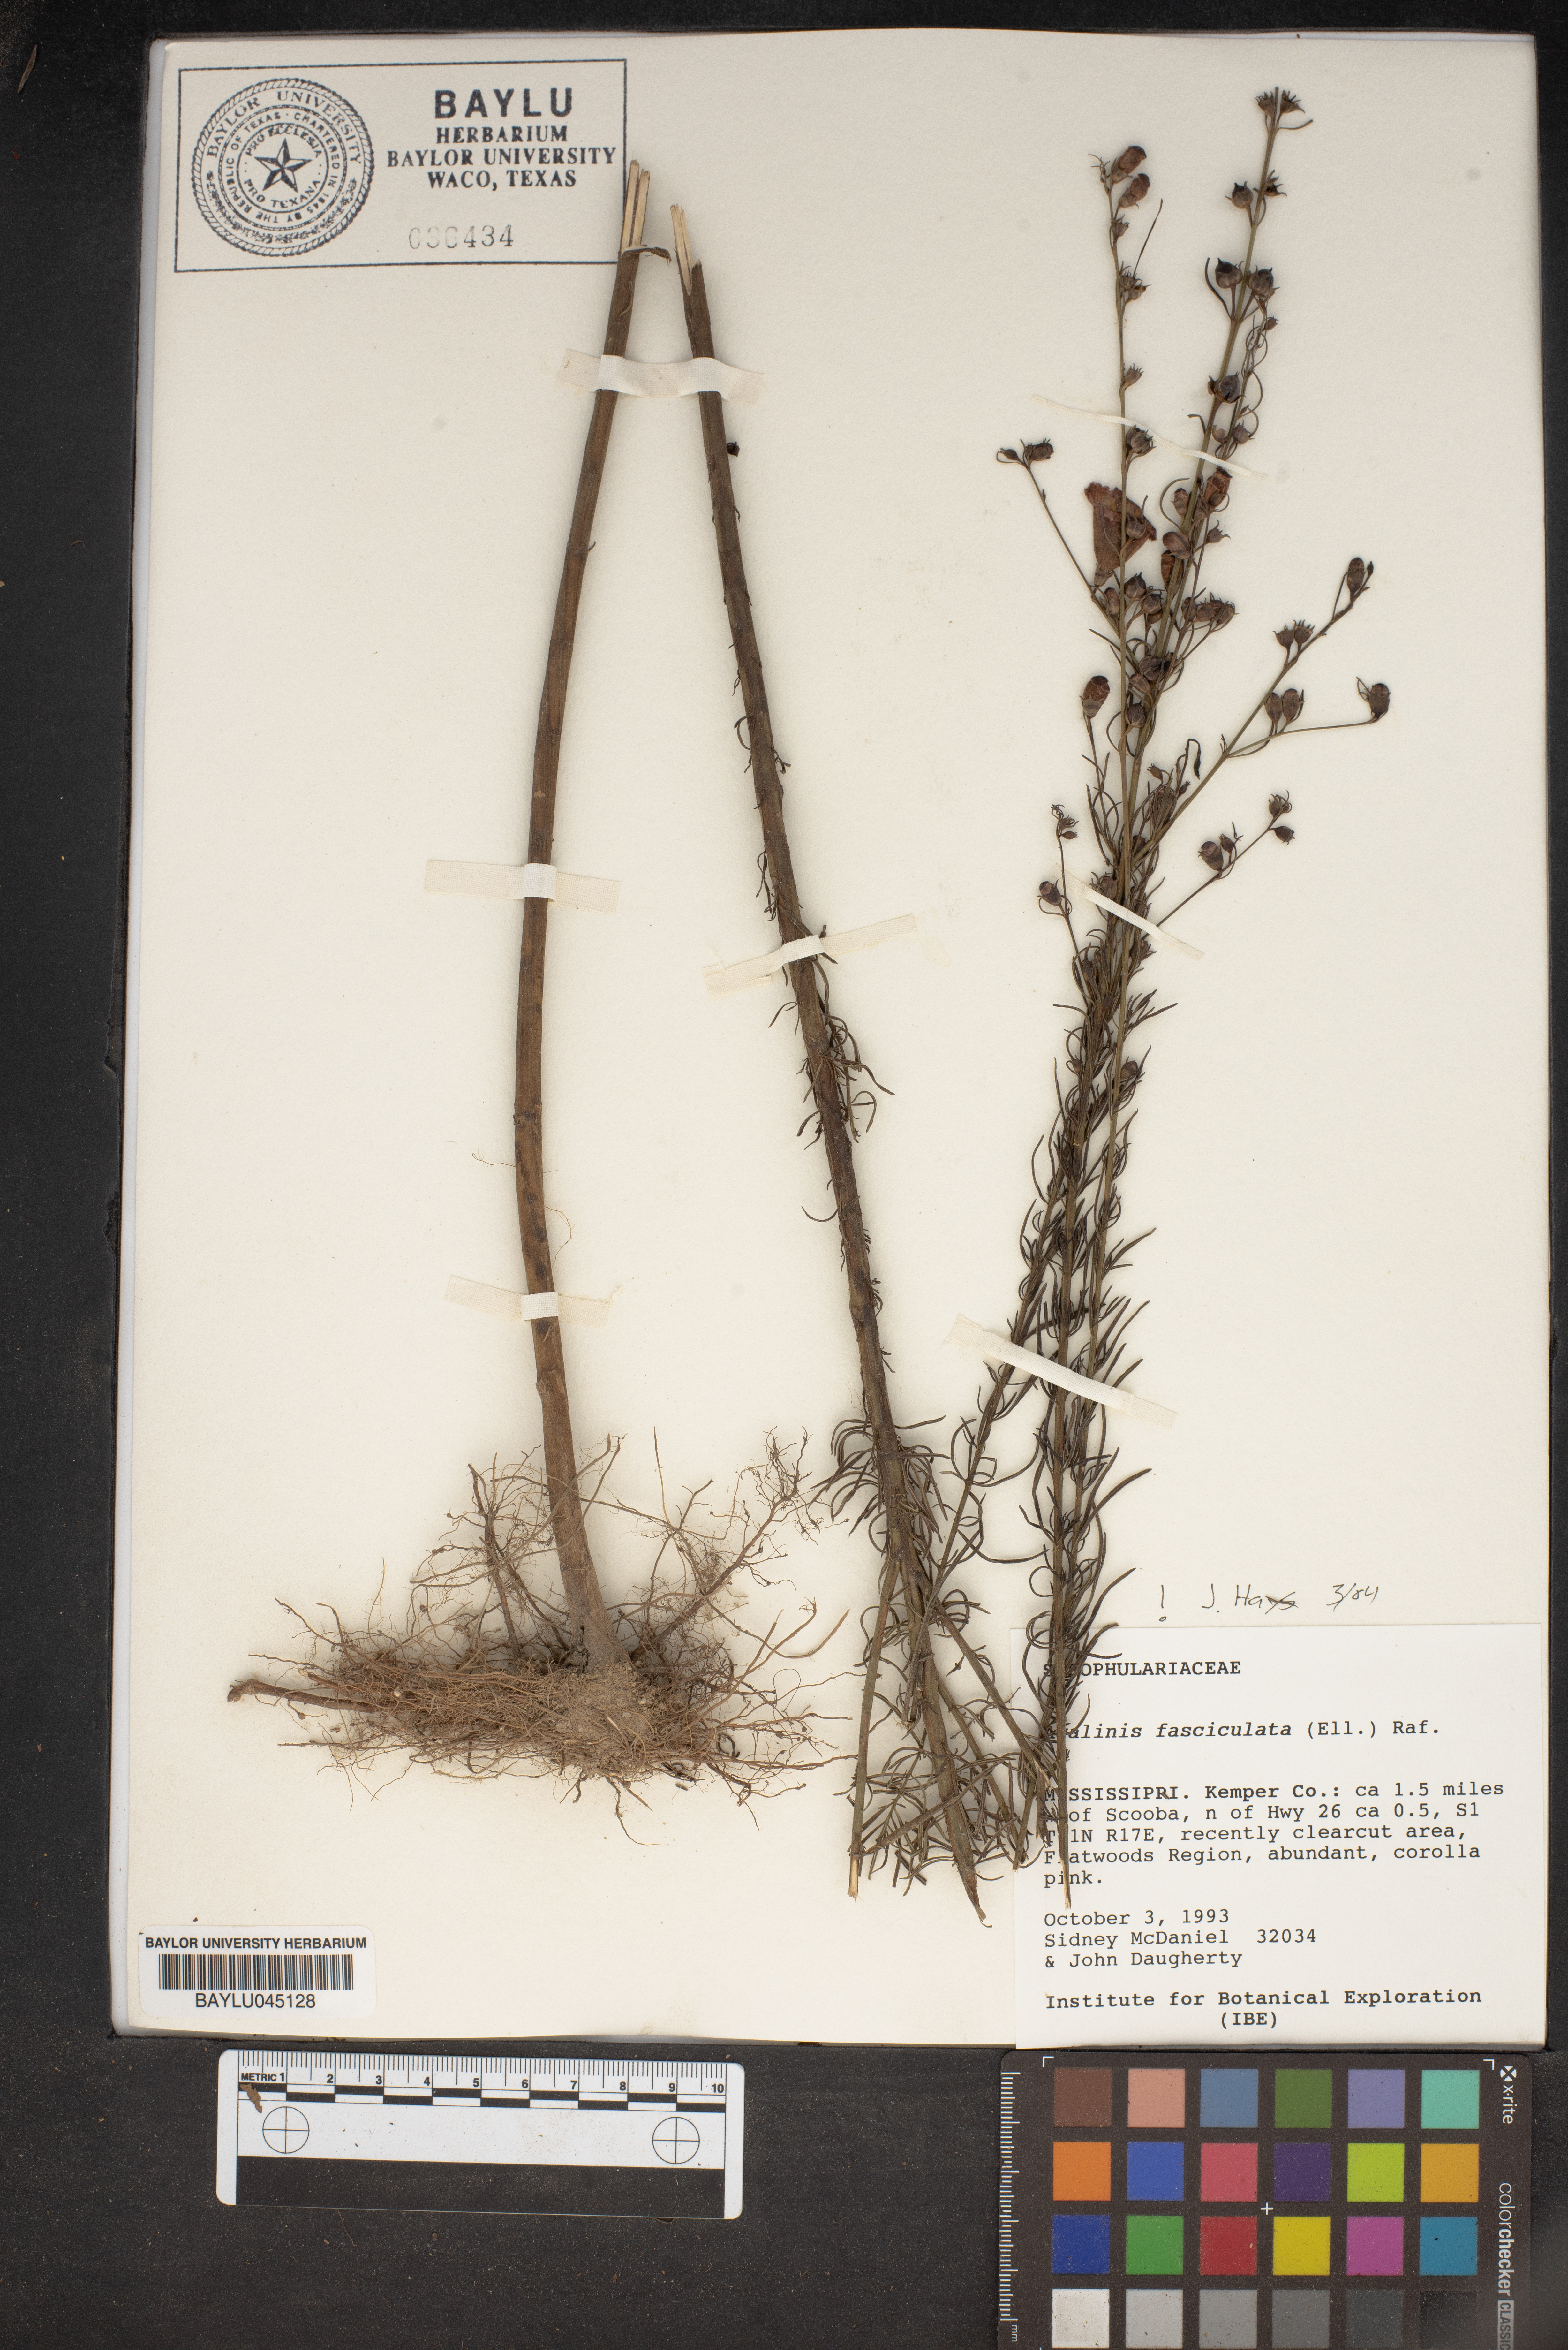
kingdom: Plantae
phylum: Tracheophyta
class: Magnoliopsida
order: Lamiales
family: Orobanchaceae
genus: Agalinis
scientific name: Agalinis fasciculata
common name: Beach false foxglove
